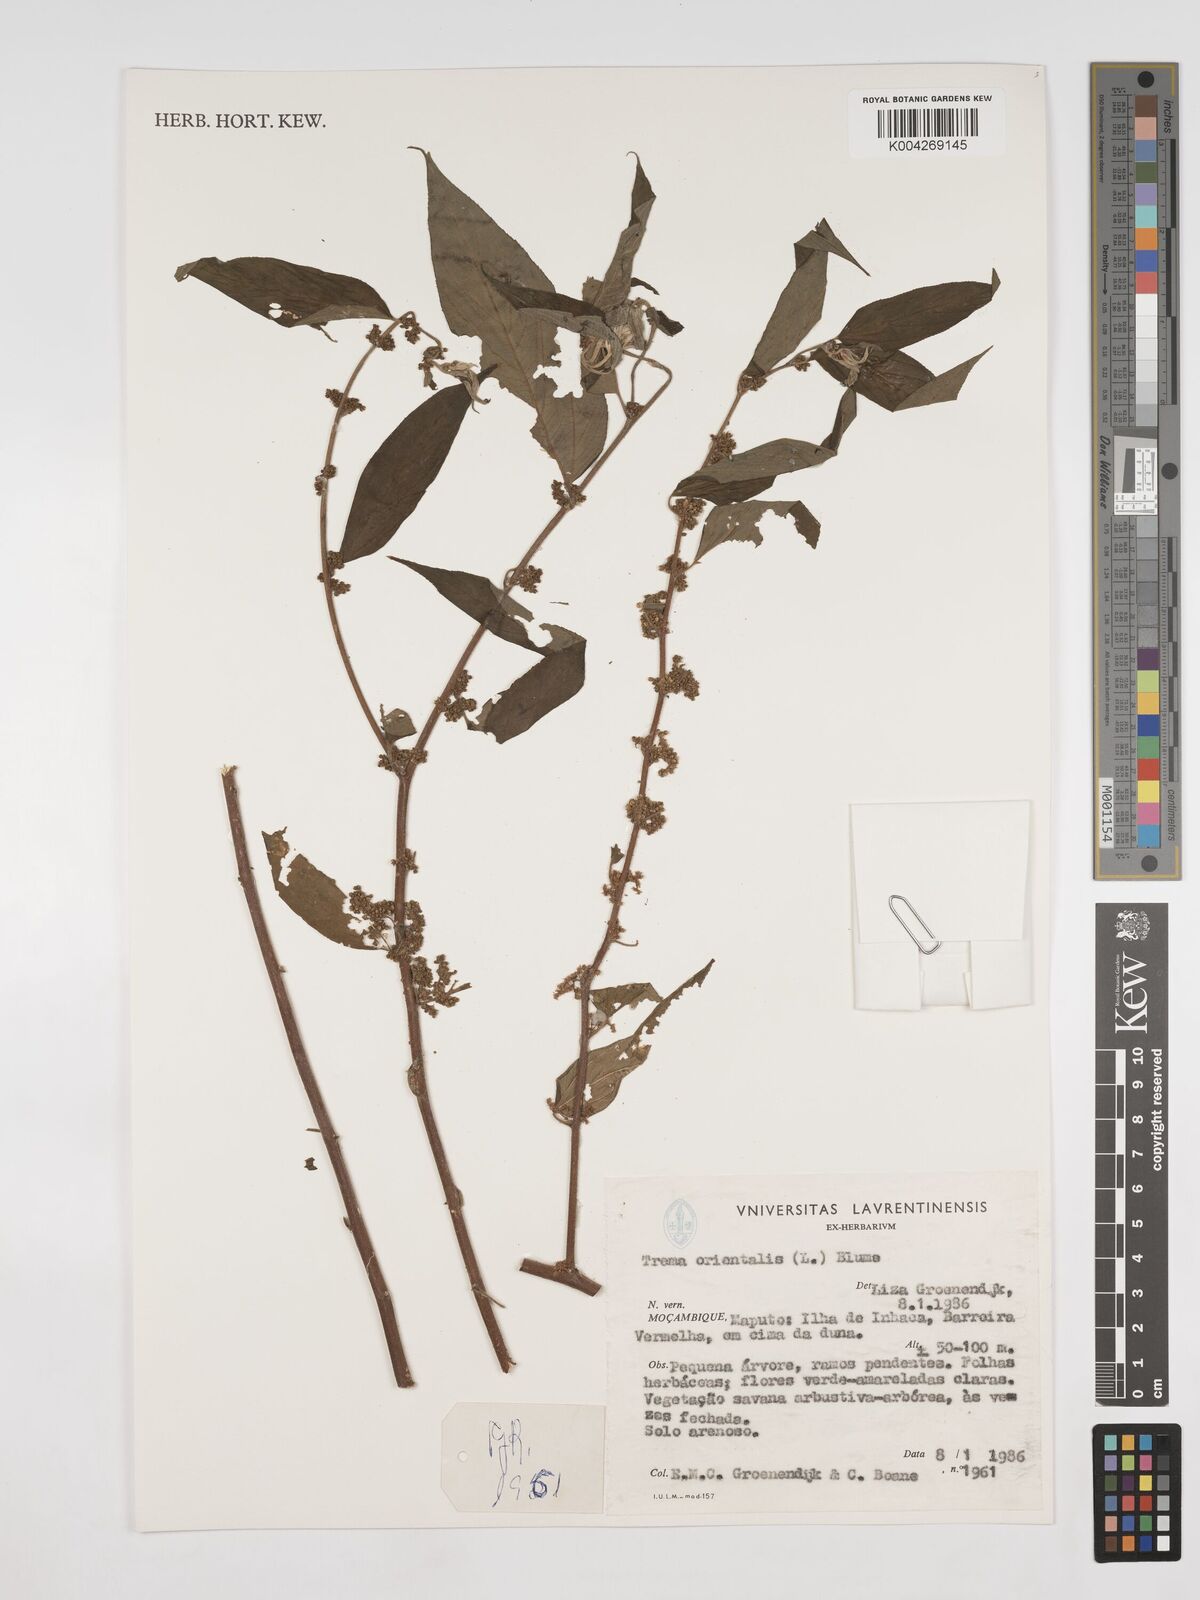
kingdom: Plantae
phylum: Tracheophyta
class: Magnoliopsida
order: Rosales
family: Cannabaceae
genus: Trema
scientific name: Trema orientale
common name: Indian charcoal tree
